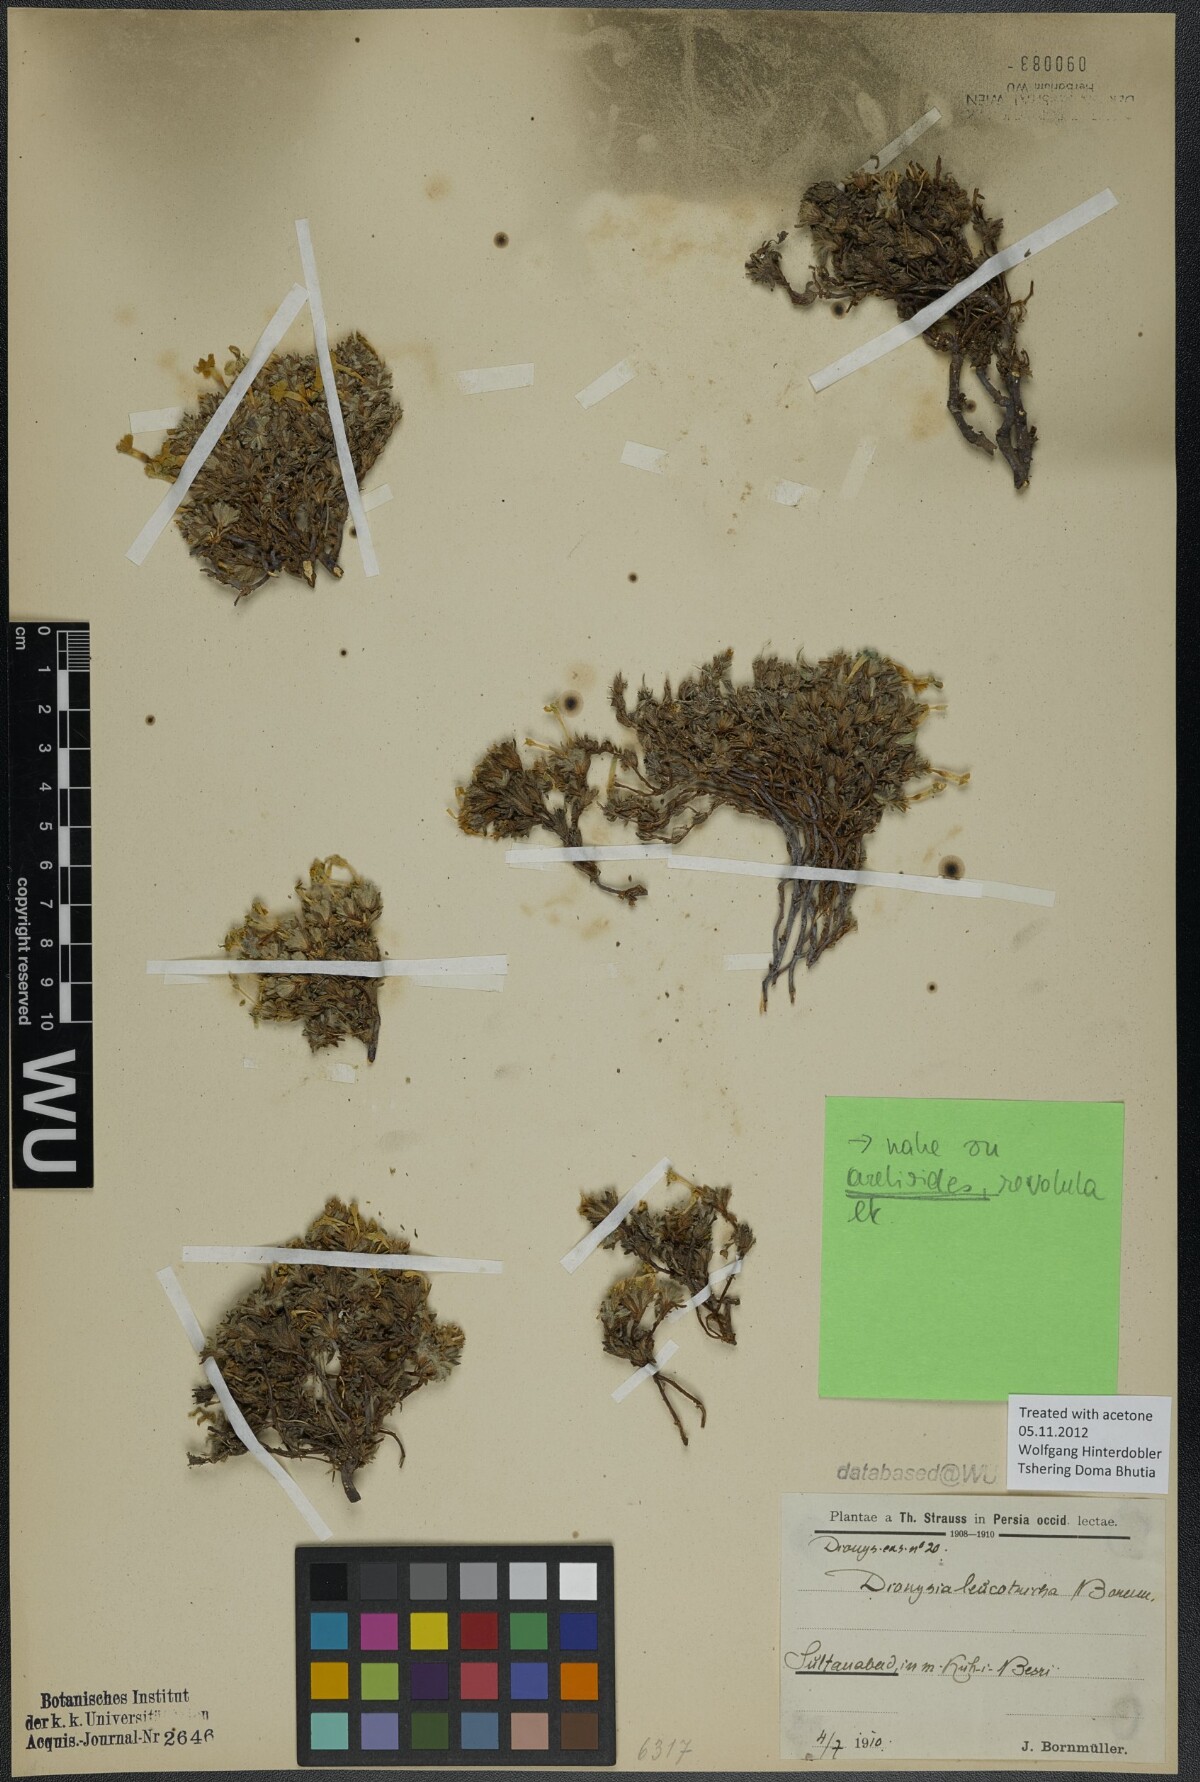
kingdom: Plantae
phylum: Tracheophyta
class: Magnoliopsida
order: Ericales
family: Primulaceae
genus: Dionysia
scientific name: Dionysia leucotricha
